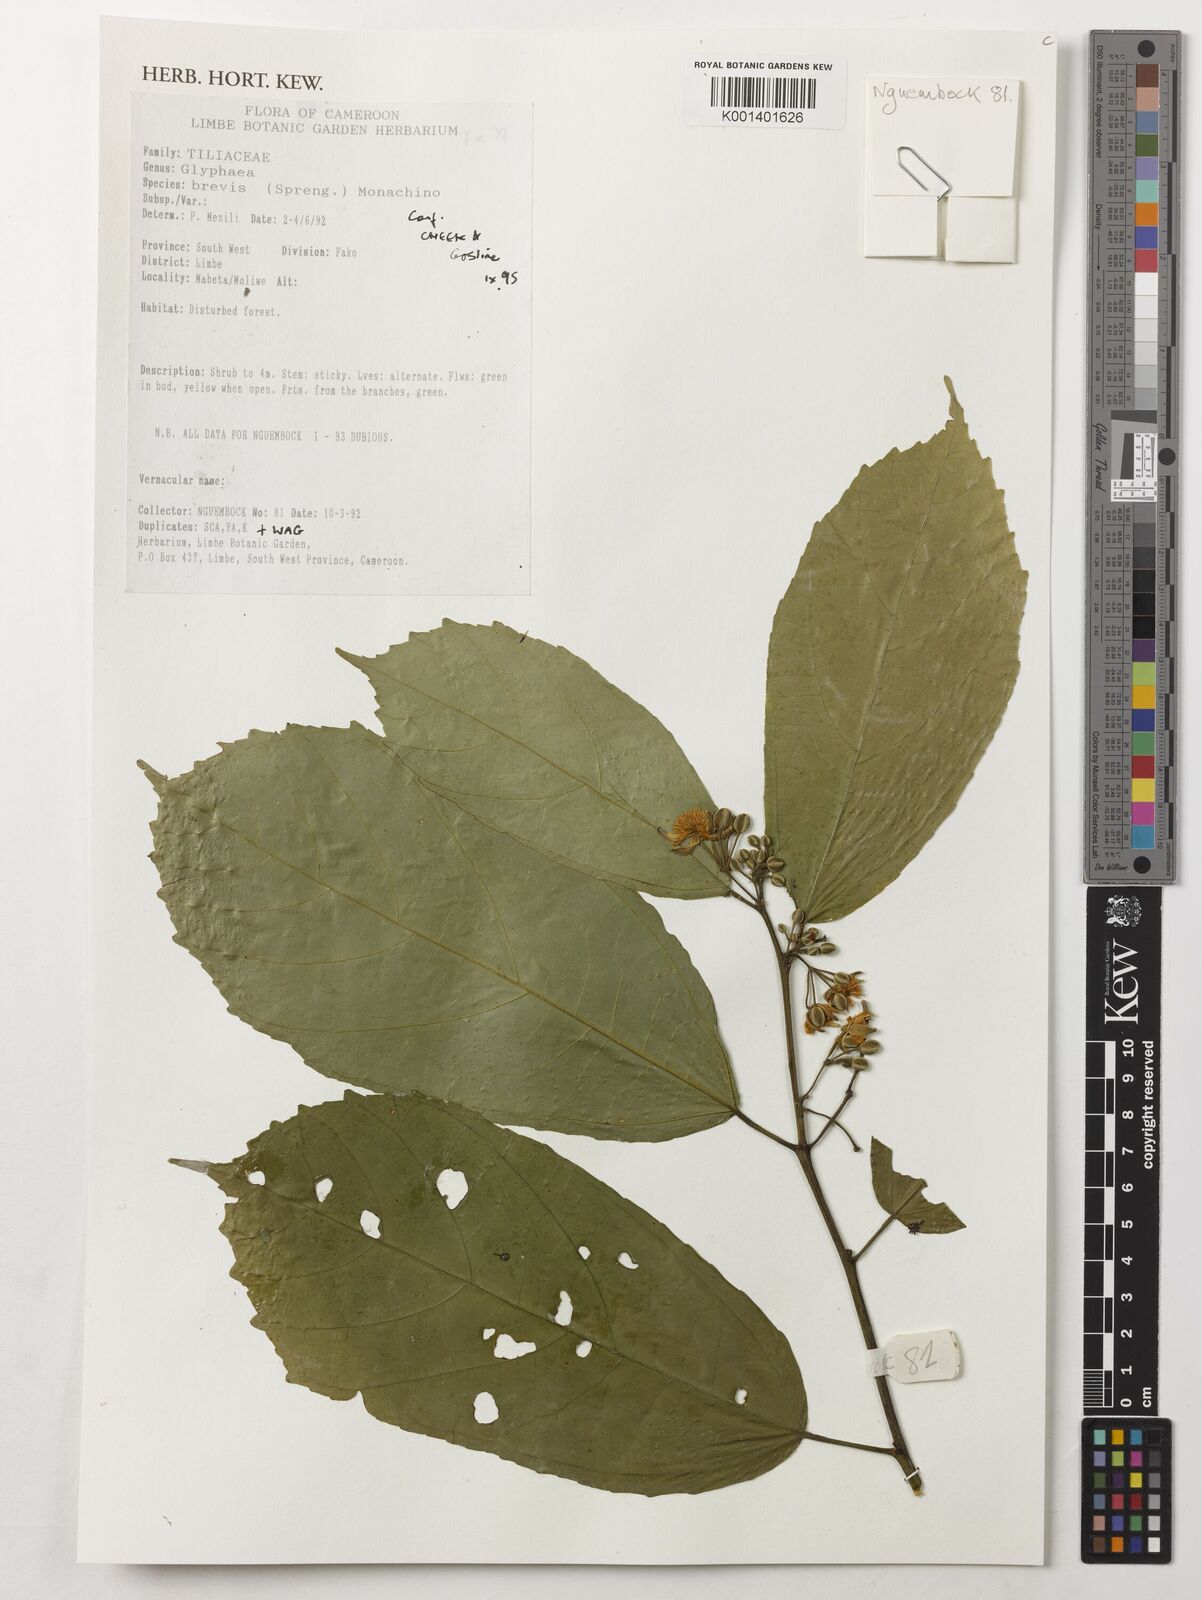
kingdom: Plantae
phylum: Tracheophyta
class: Magnoliopsida
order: Malvales
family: Malvaceae
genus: Glyphaea
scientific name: Glyphaea brevis
